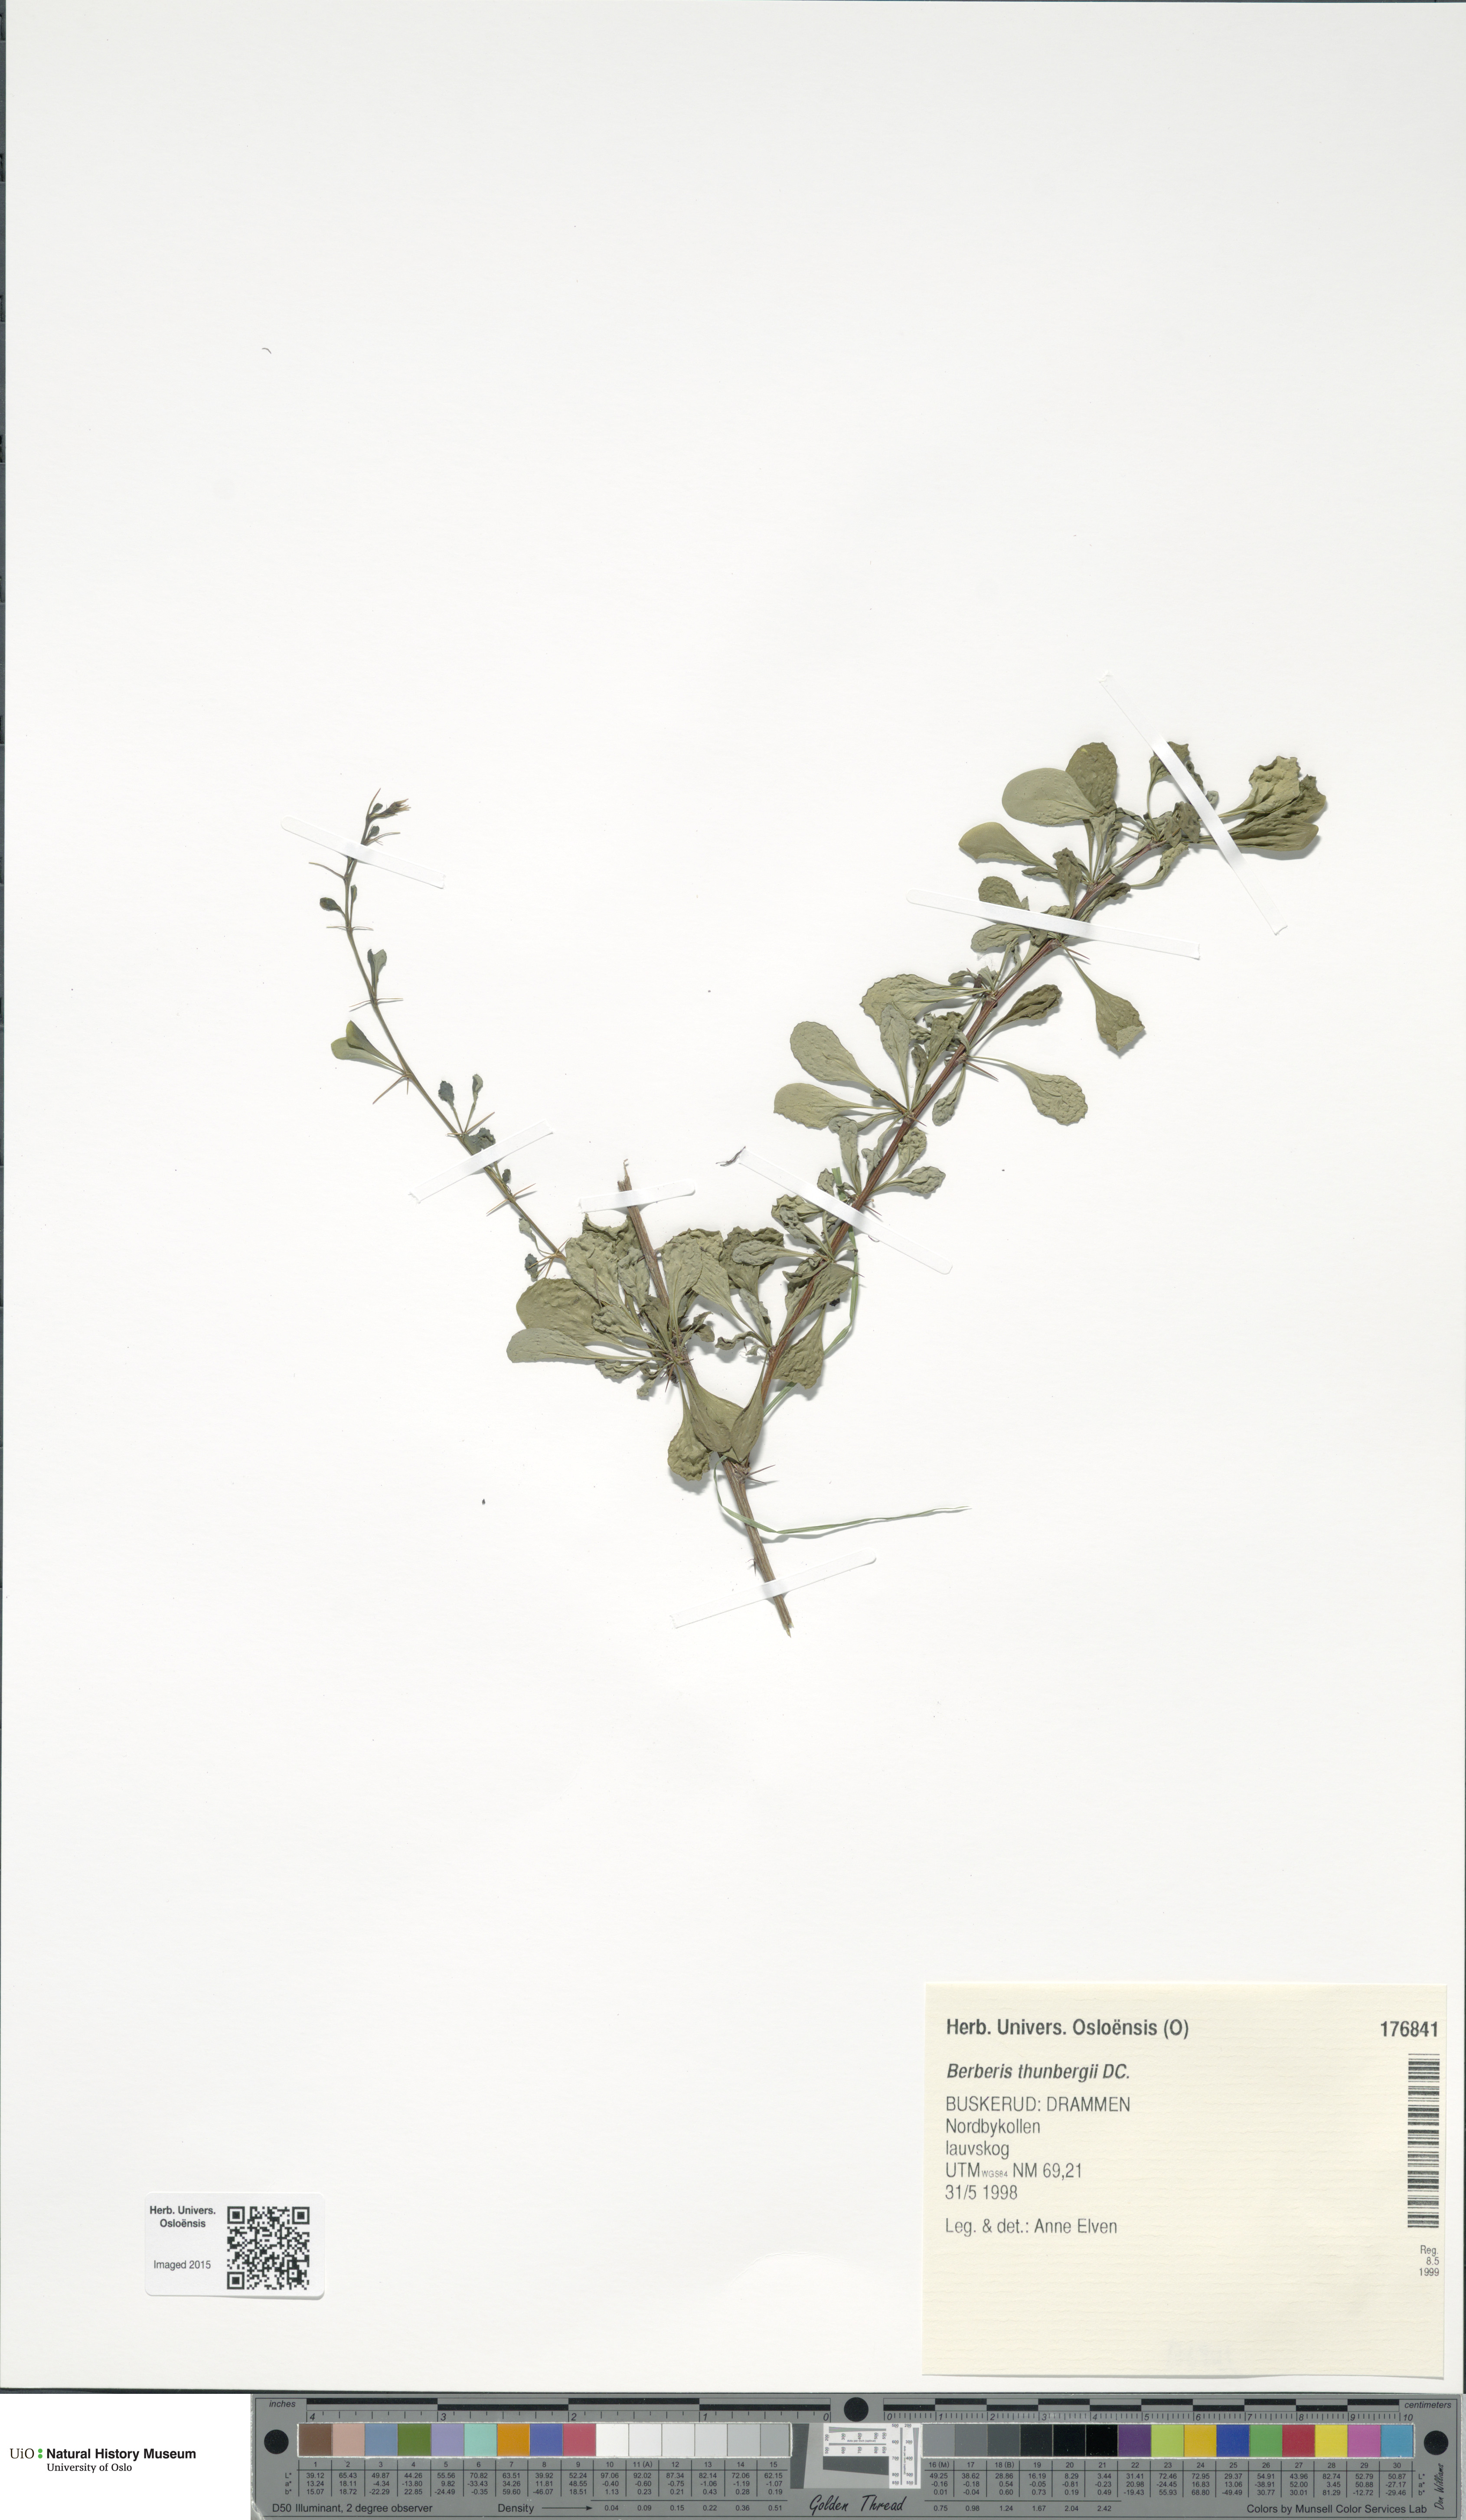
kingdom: Plantae
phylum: Tracheophyta
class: Magnoliopsida
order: Ranunculales
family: Berberidaceae
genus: Berberis
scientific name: Berberis thunbergii
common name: Japanese barberry
